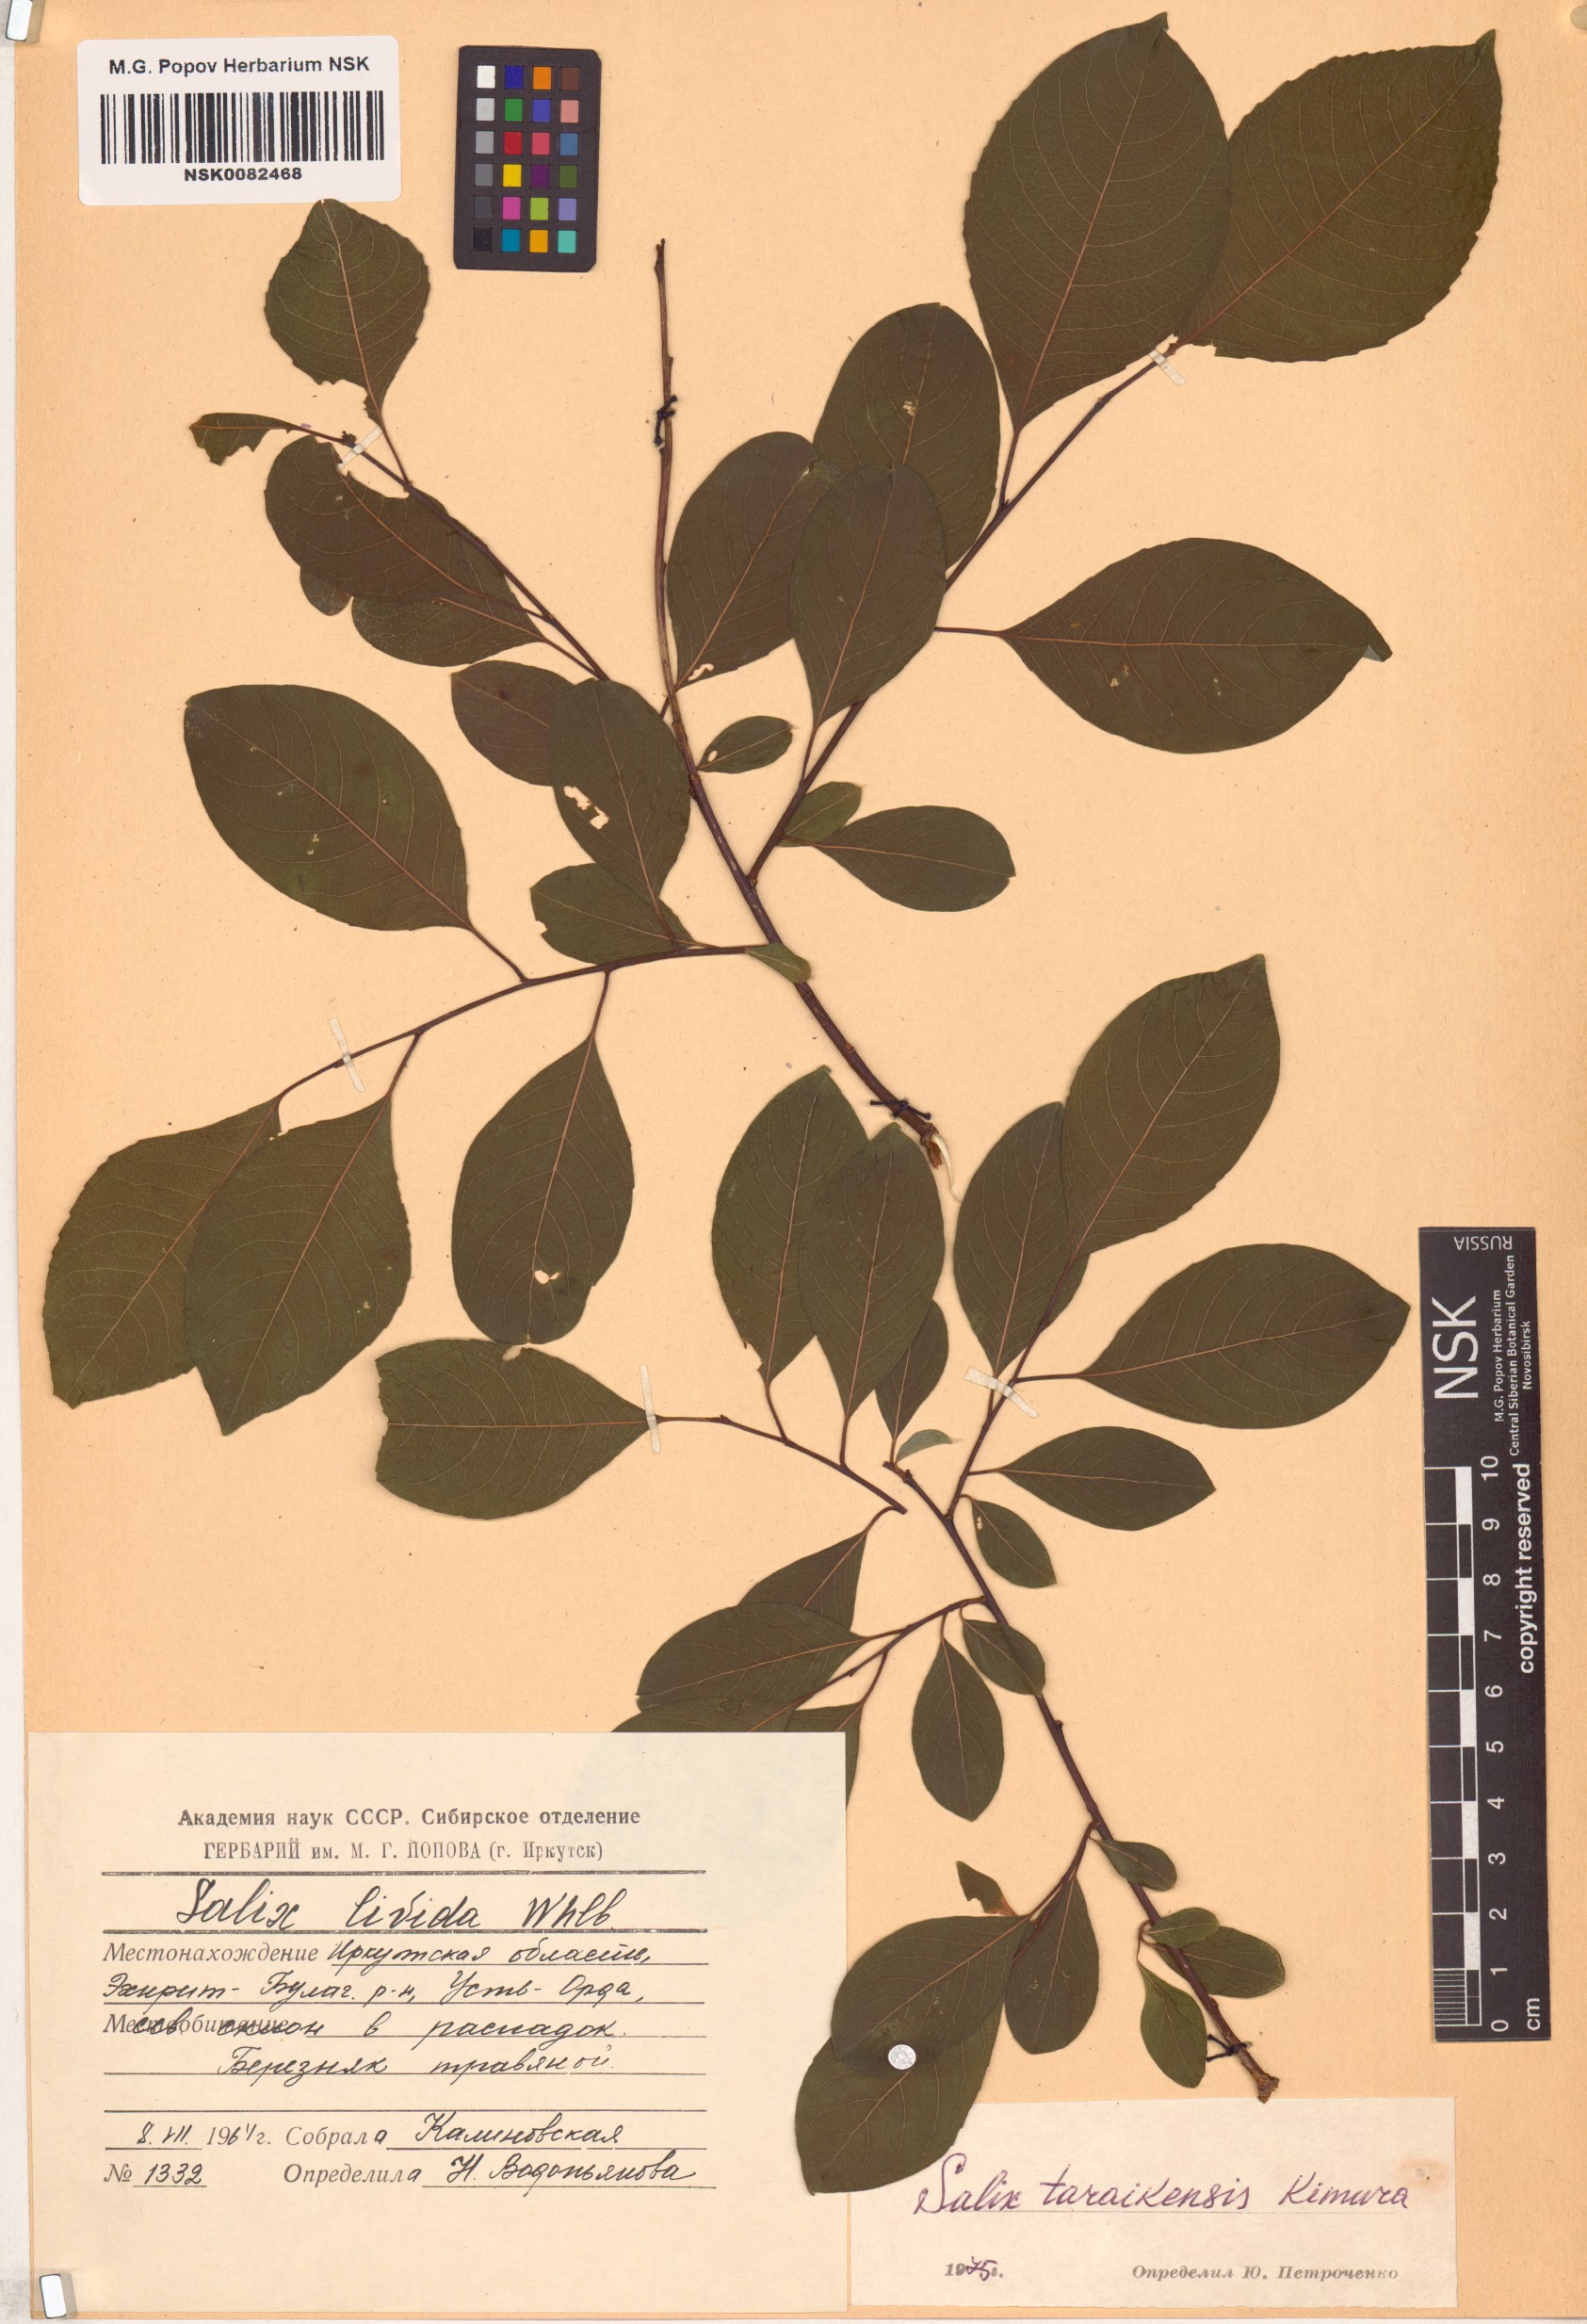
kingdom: Plantae
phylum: Tracheophyta
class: Magnoliopsida
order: Malpighiales
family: Salicaceae
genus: Salix
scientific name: Salix taraikensis
